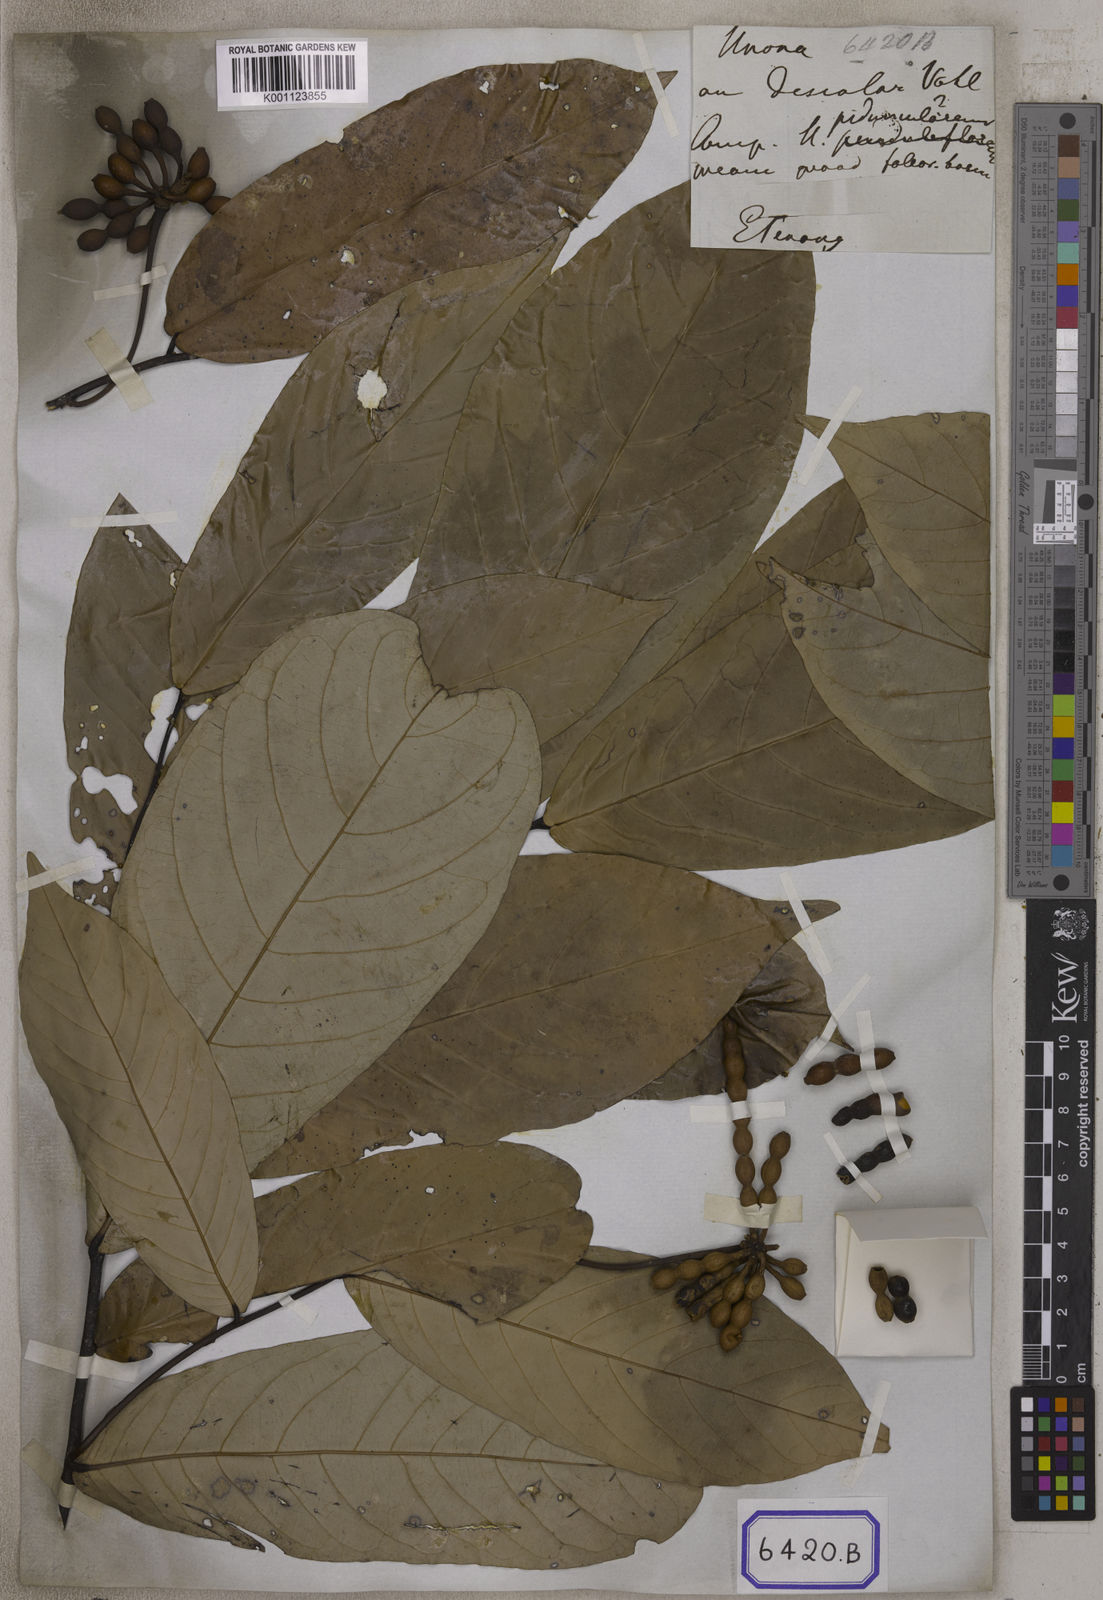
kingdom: Plantae
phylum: Tracheophyta
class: Magnoliopsida
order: Magnoliales
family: Annonaceae
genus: Desmos
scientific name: Desmos chinensis
